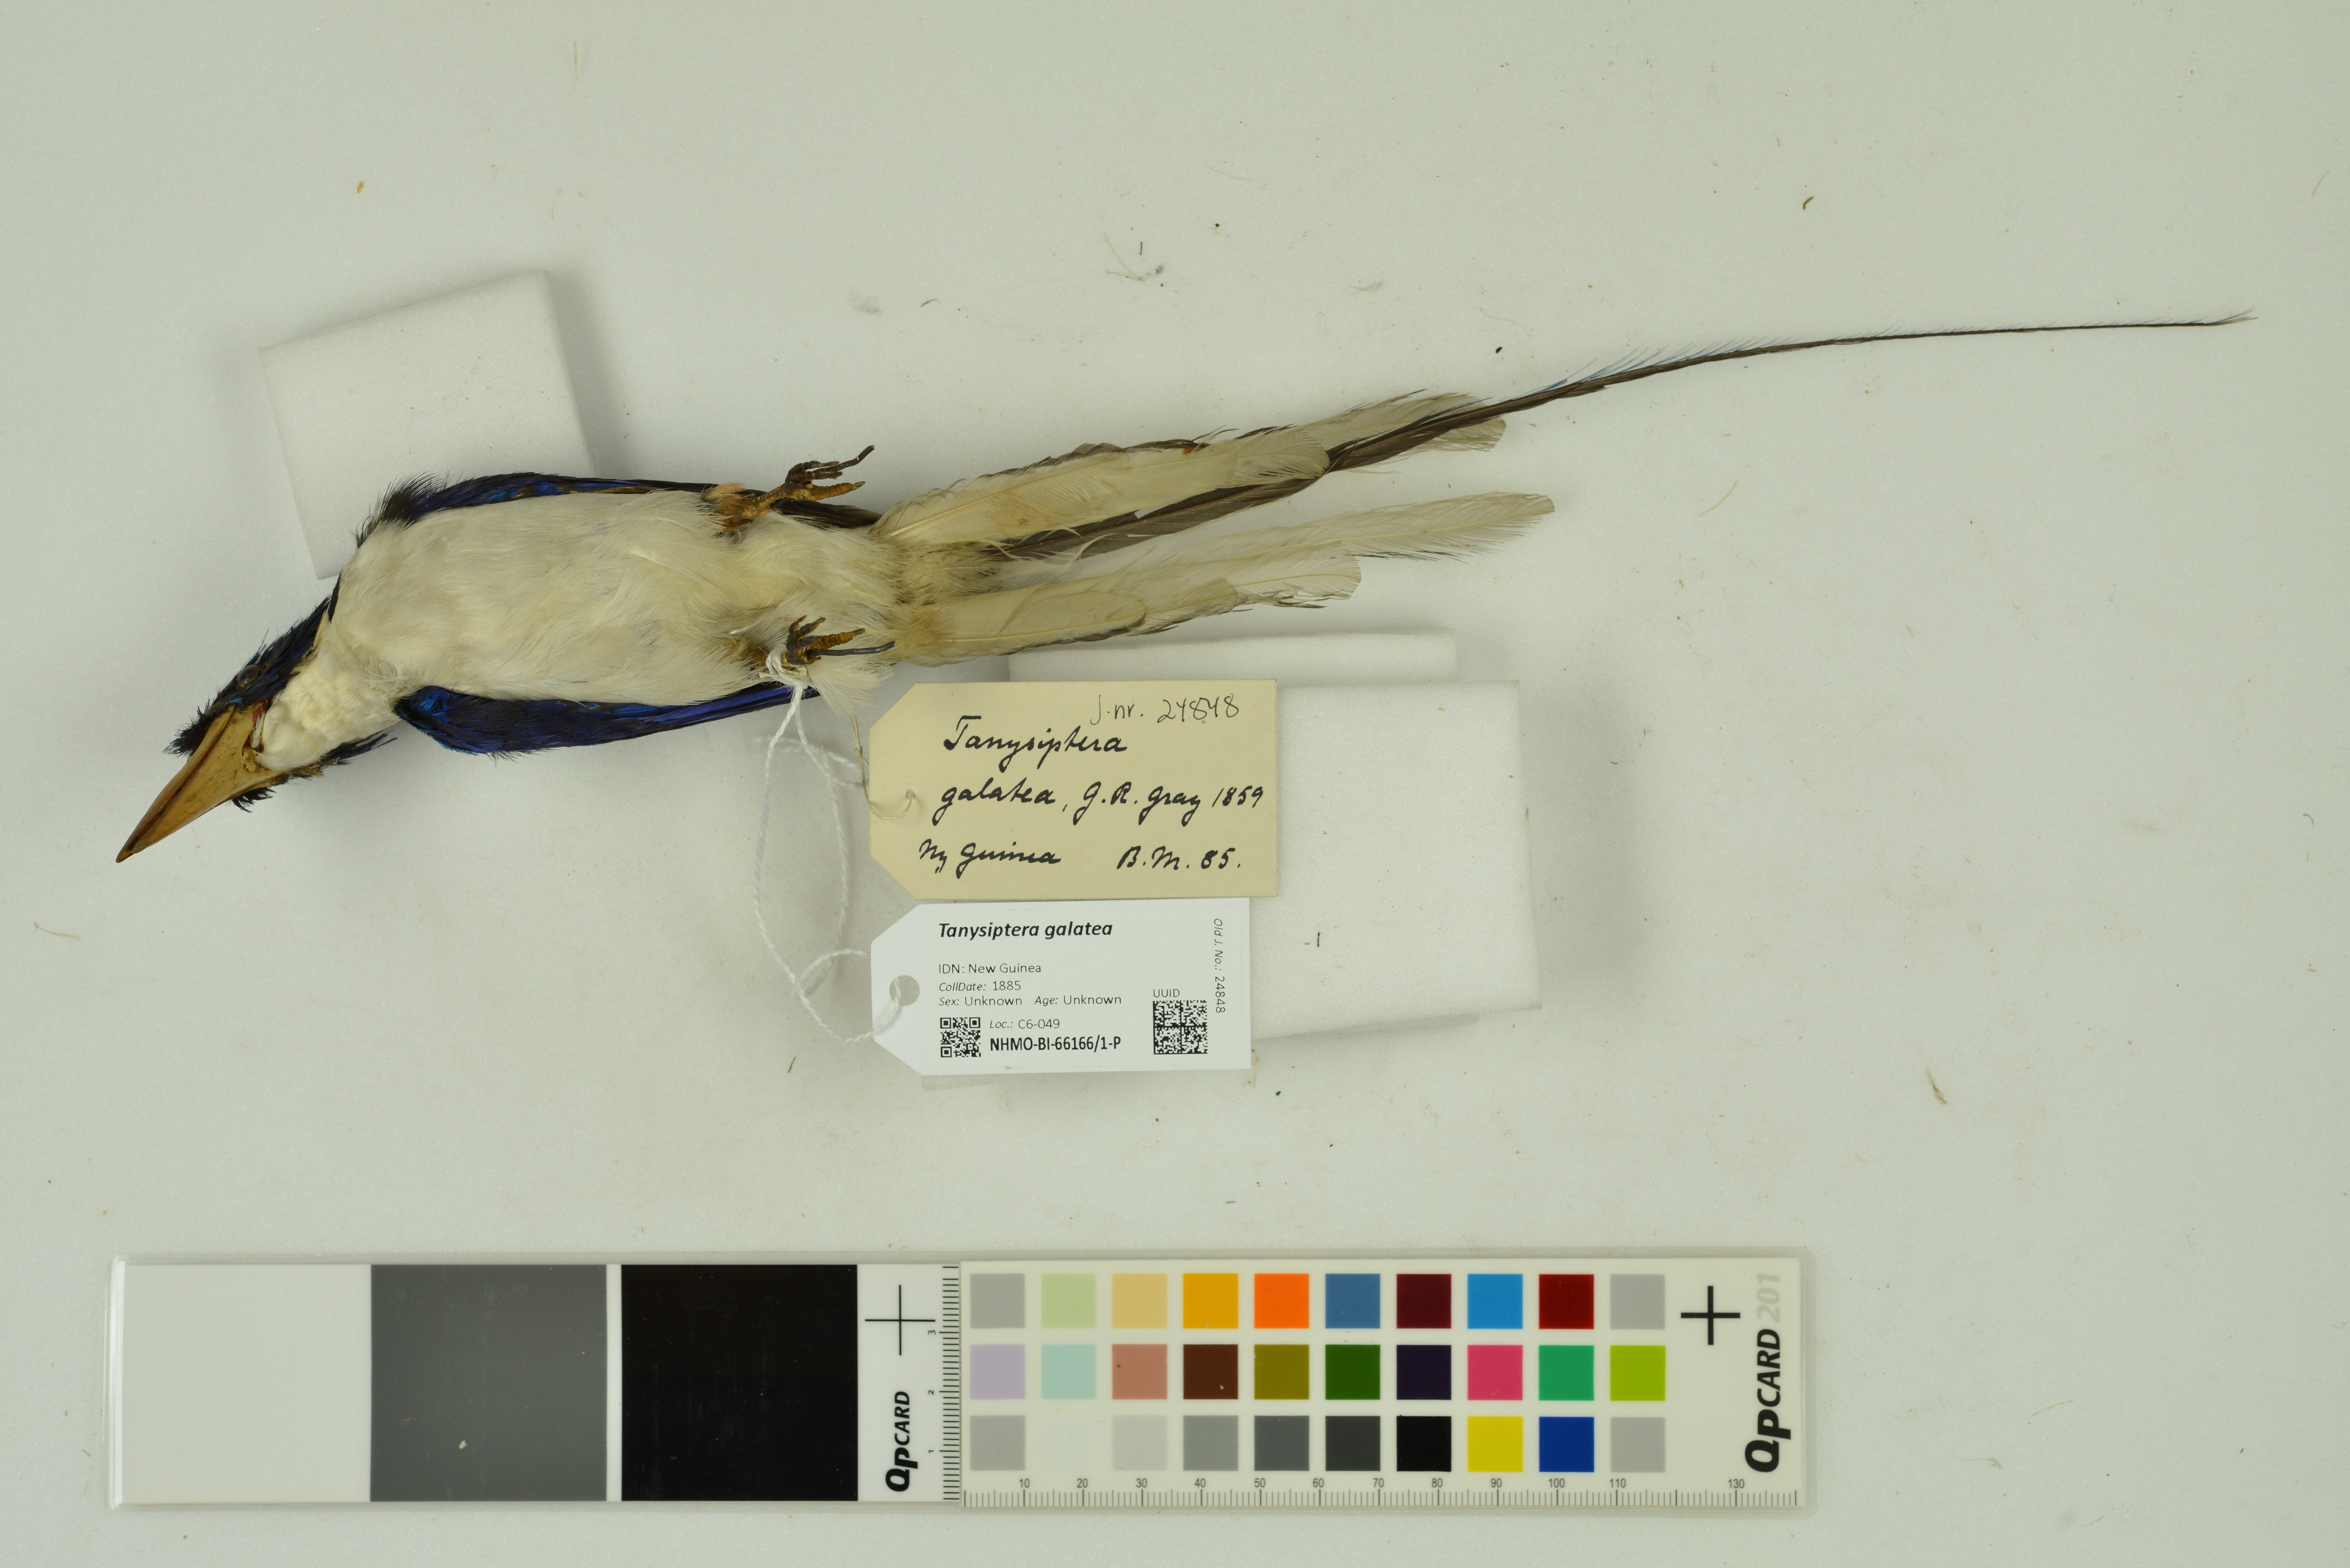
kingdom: Animalia
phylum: Chordata
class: Aves
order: Coraciiformes
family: Alcedinidae
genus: Tanysiptera
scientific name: Tanysiptera galatea
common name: Common paradise-kingfisher
